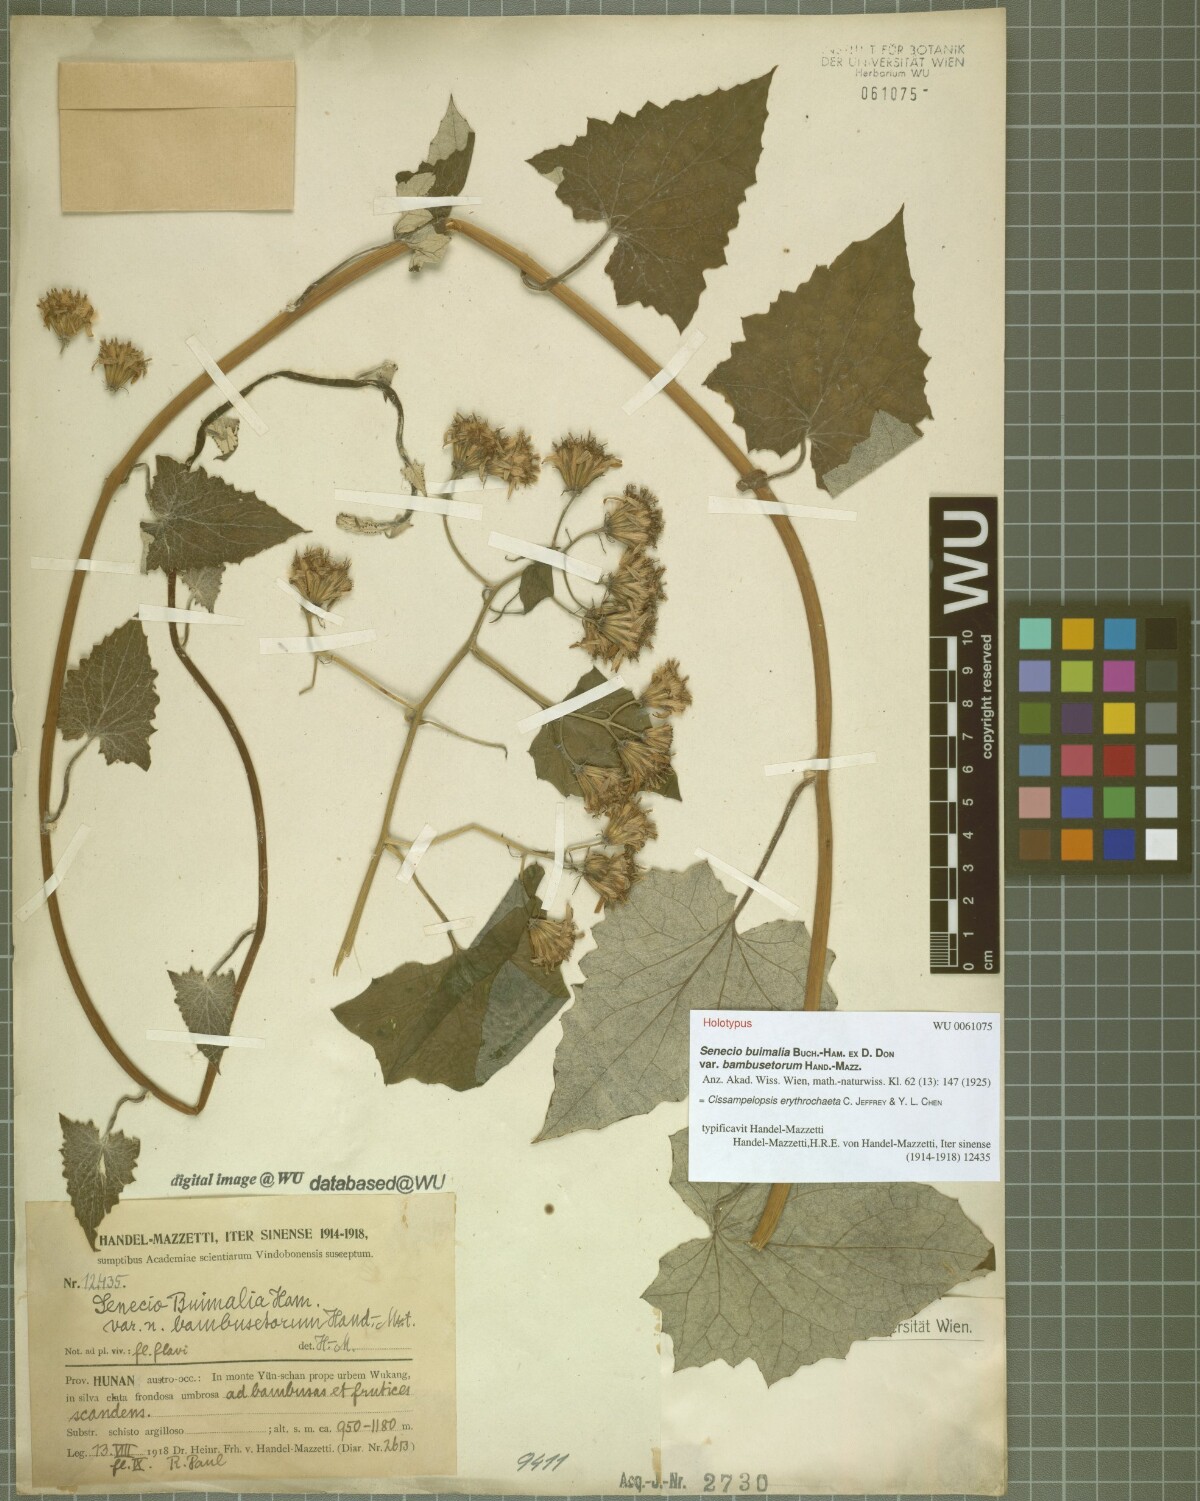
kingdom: Plantae
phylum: Tracheophyta
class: Magnoliopsida
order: Asterales
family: Asteraceae
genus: Cissampelopsis
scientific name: Cissampelopsis erythrochaeta
